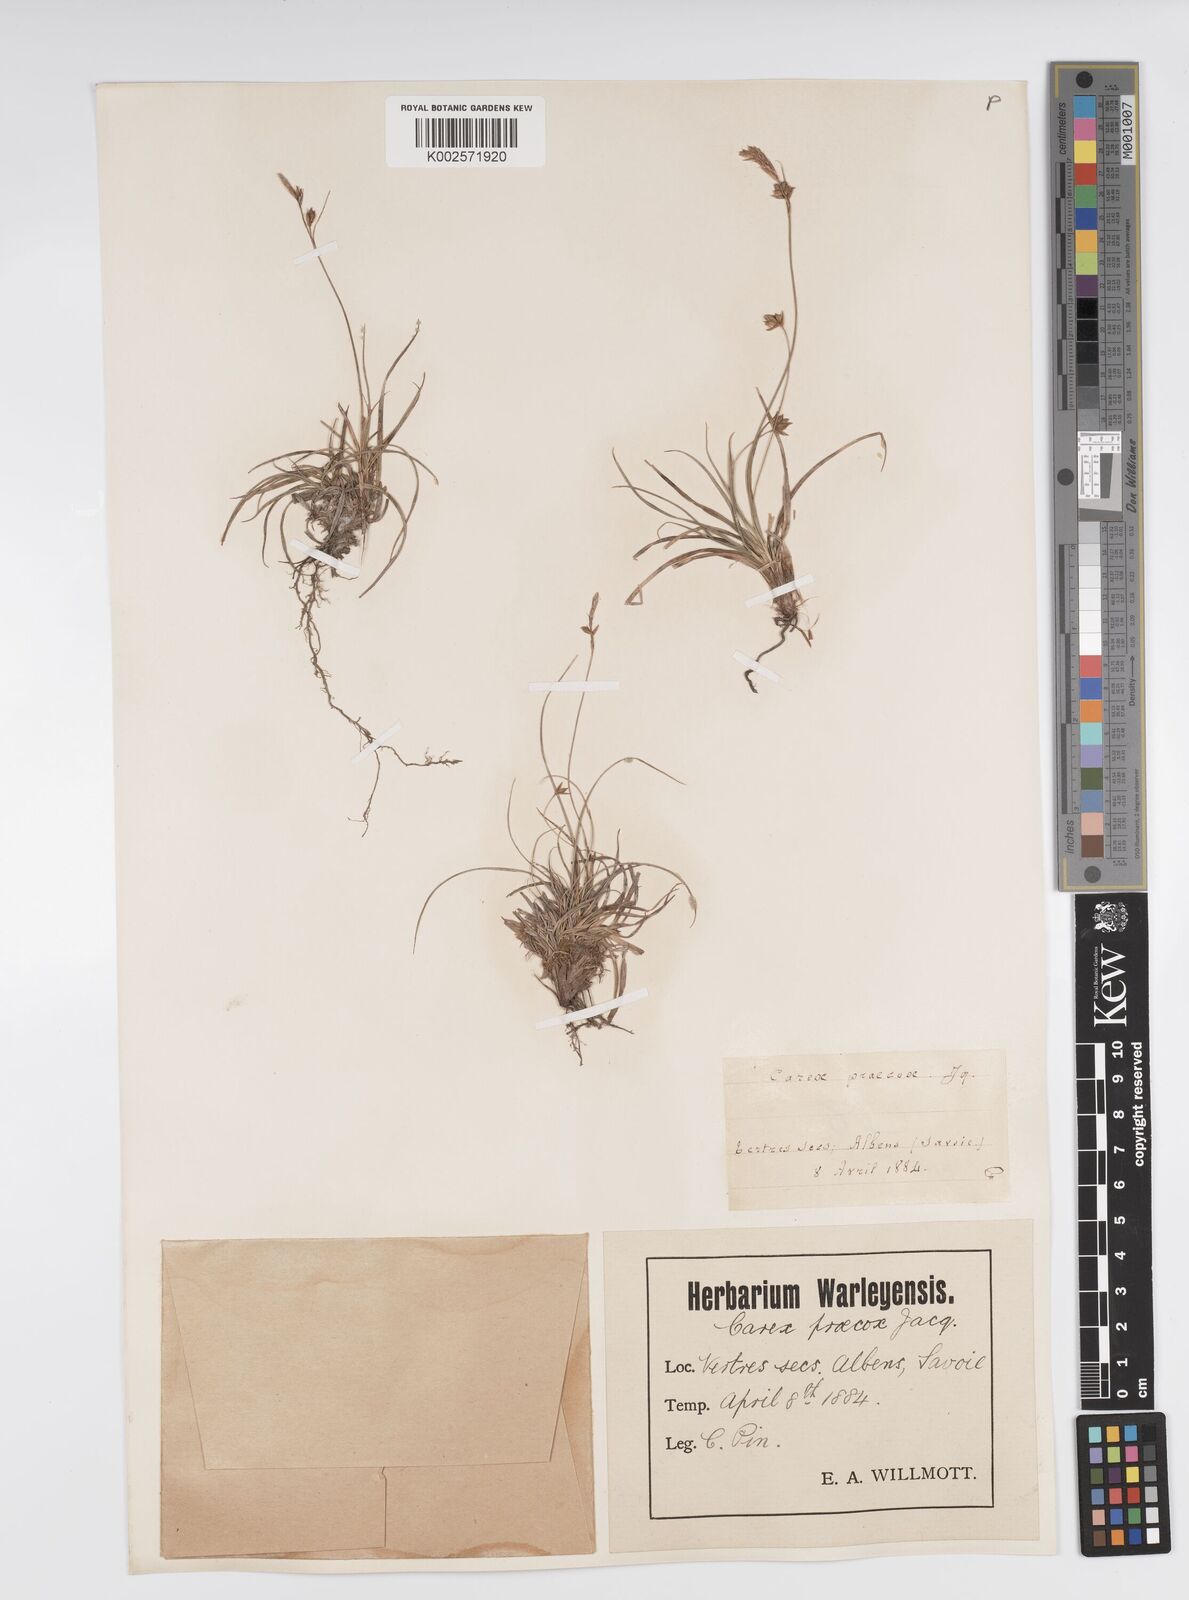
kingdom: Plantae
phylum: Tracheophyta
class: Liliopsida
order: Poales
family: Cyperaceae
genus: Carex
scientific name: Carex halleriana
